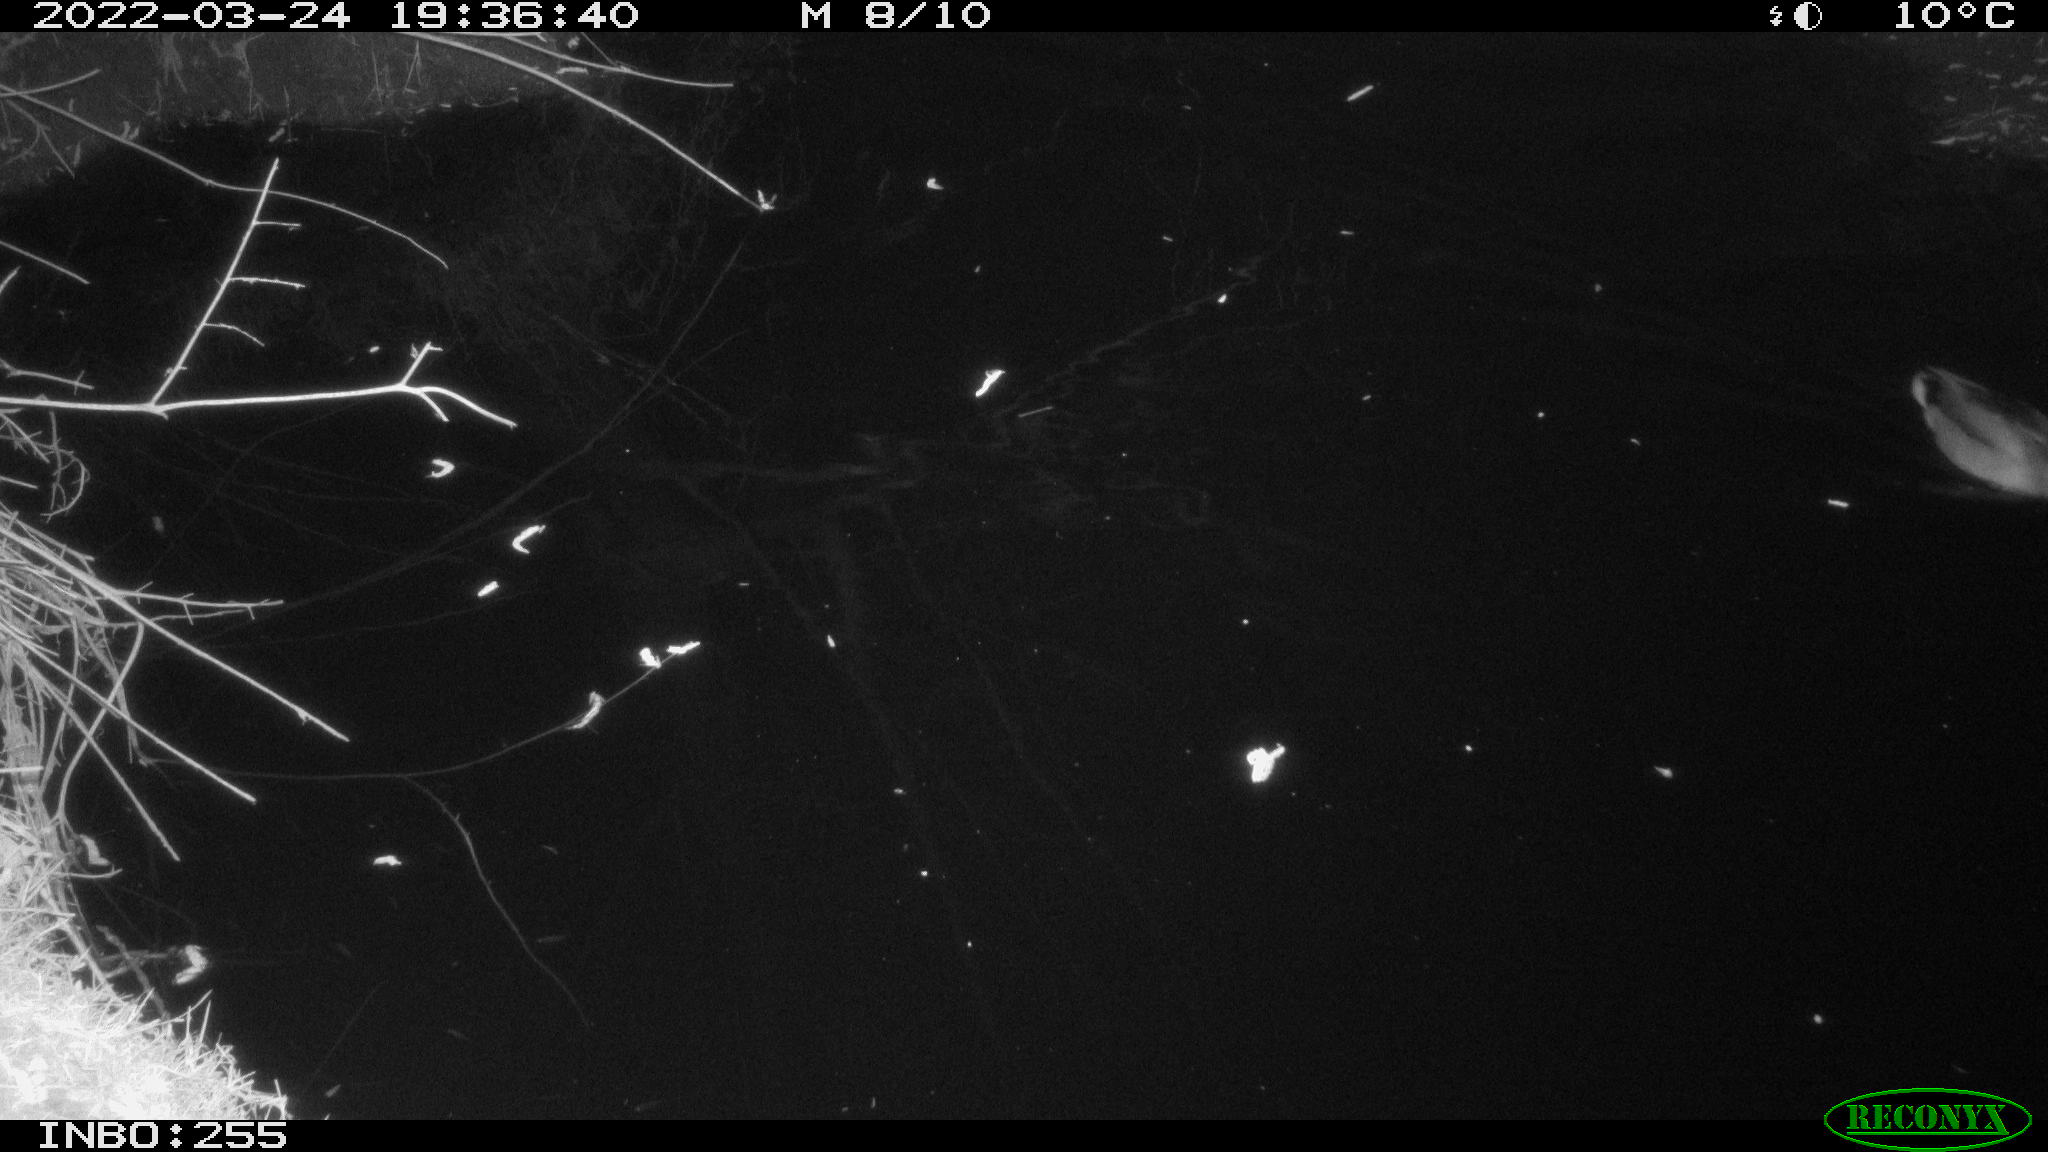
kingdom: Animalia
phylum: Chordata
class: Aves
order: Anseriformes
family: Anatidae
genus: Anas
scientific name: Anas platyrhynchos
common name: Mallard
